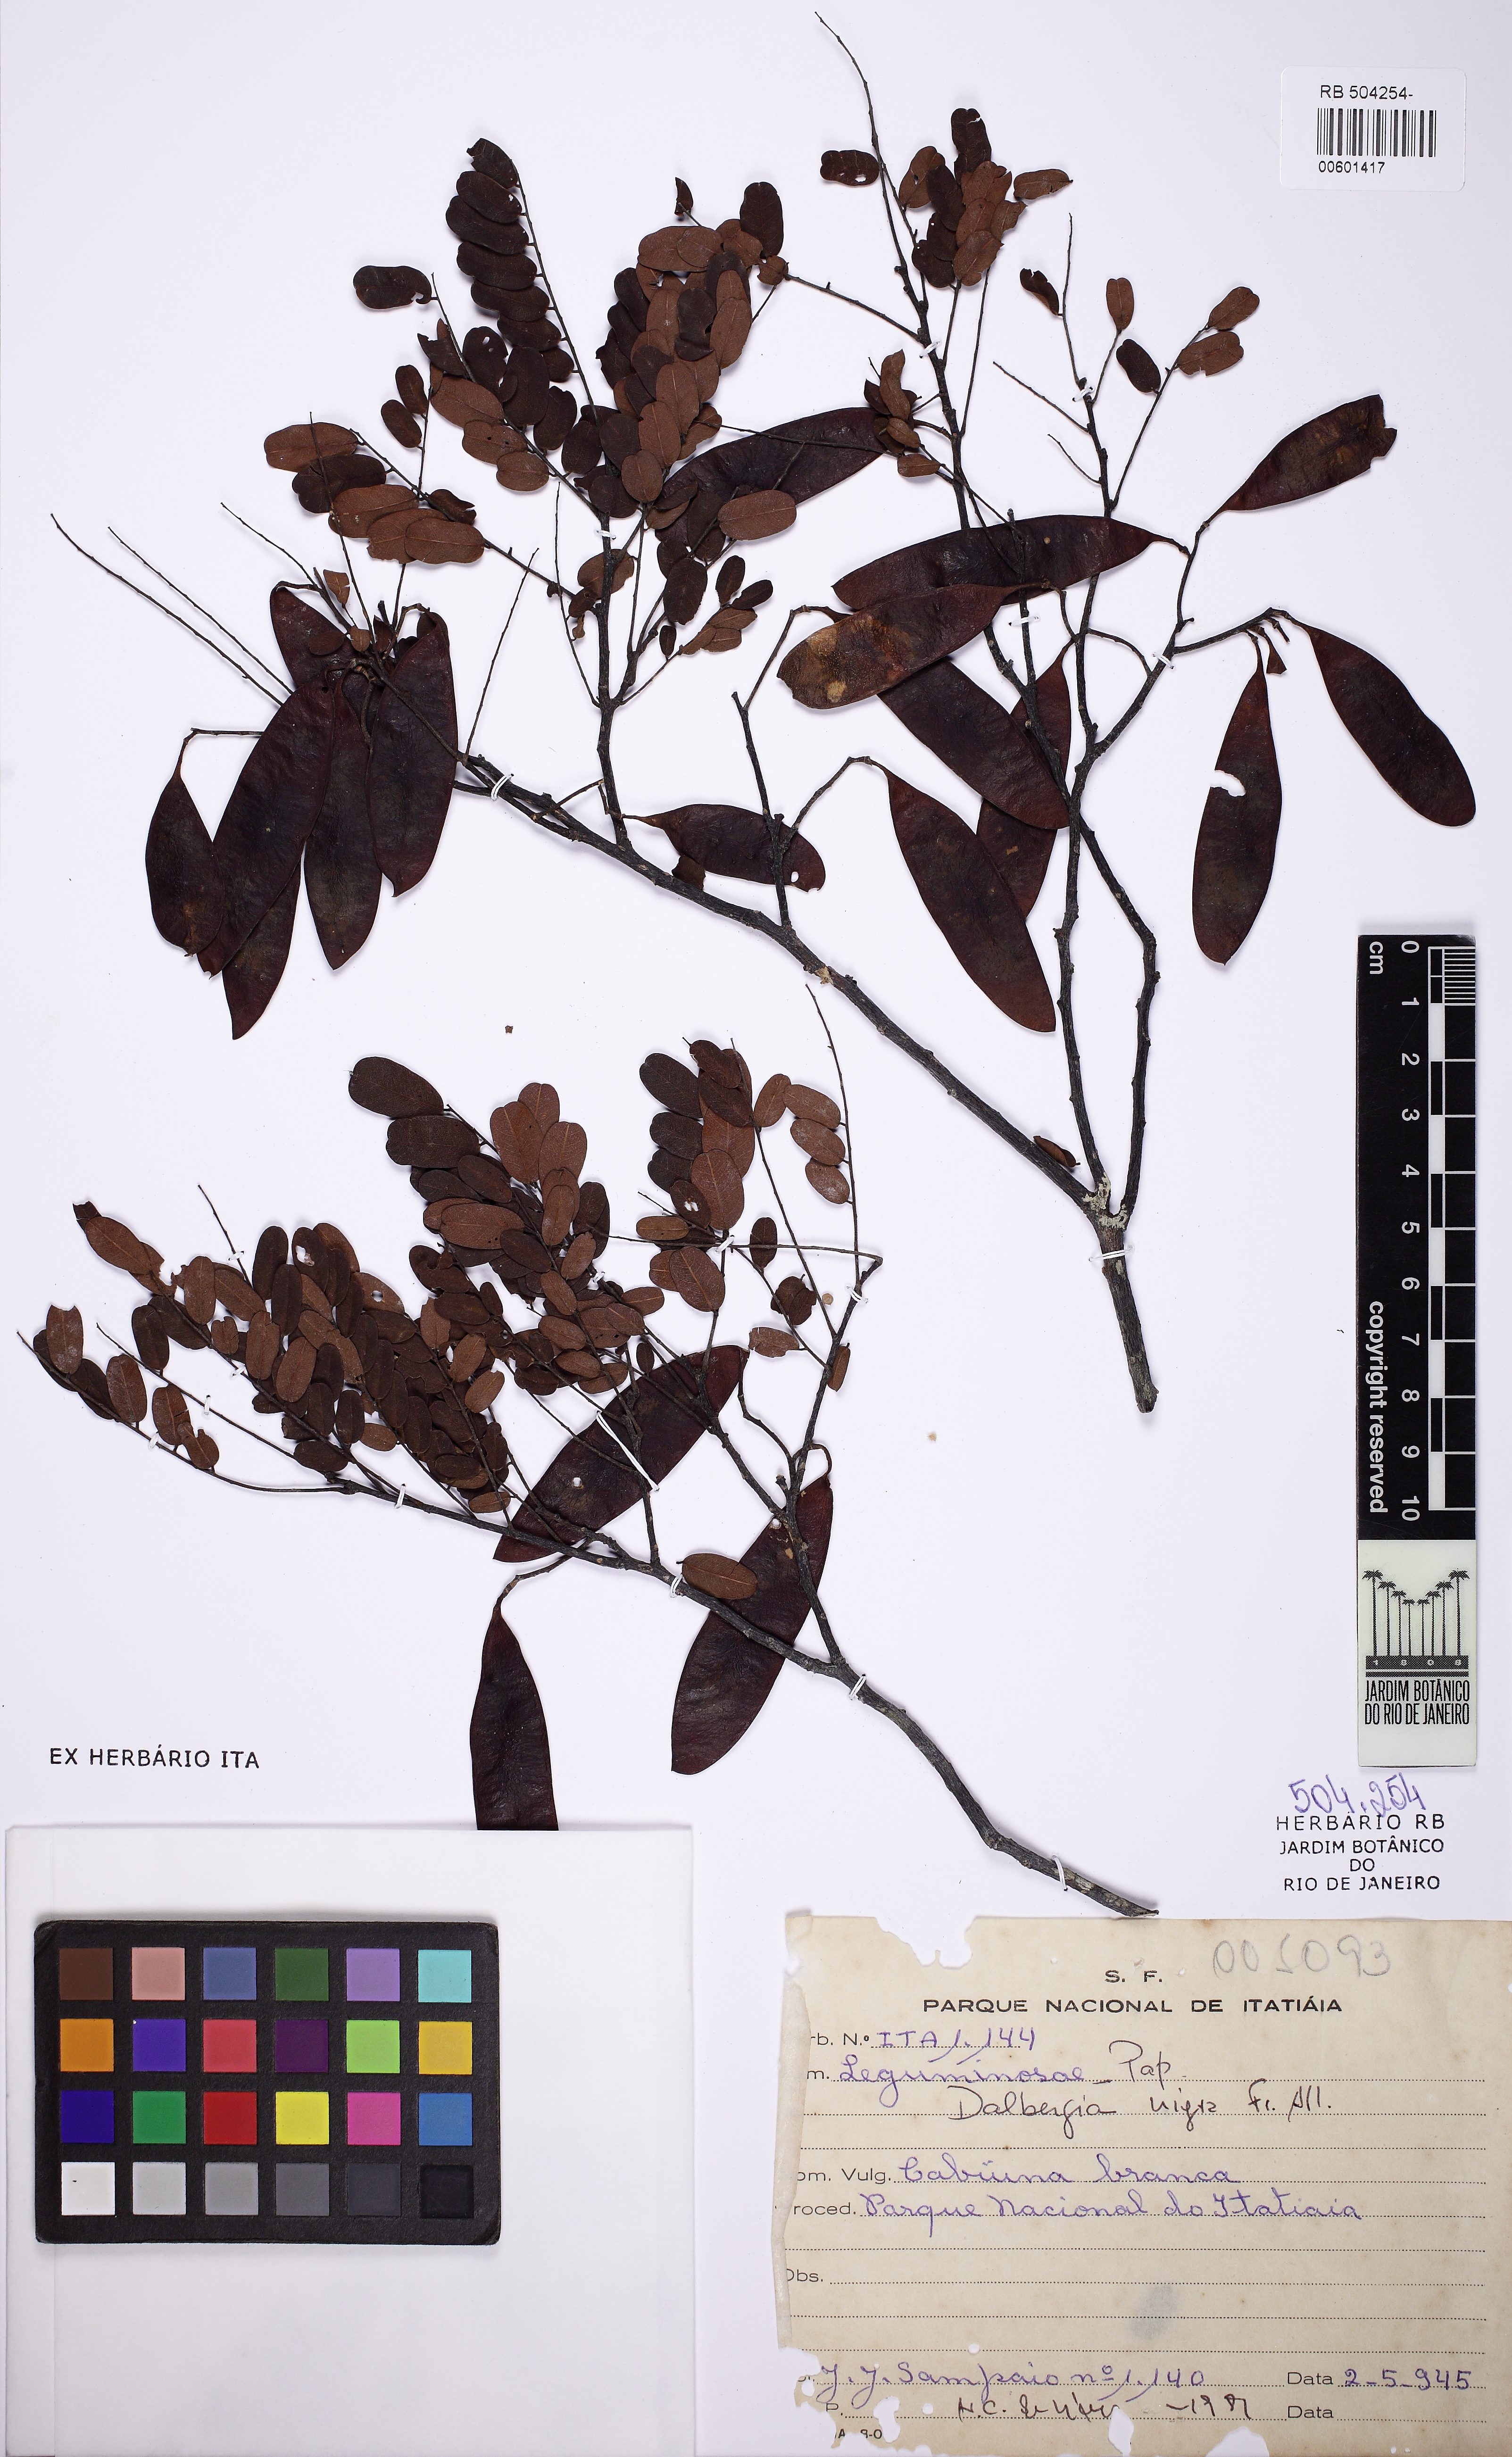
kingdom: Plantae
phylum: Tracheophyta
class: Magnoliopsida
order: Fabales
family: Fabaceae
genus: Dalbergia
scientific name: Dalbergia nigra
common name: Bahia rosewood
